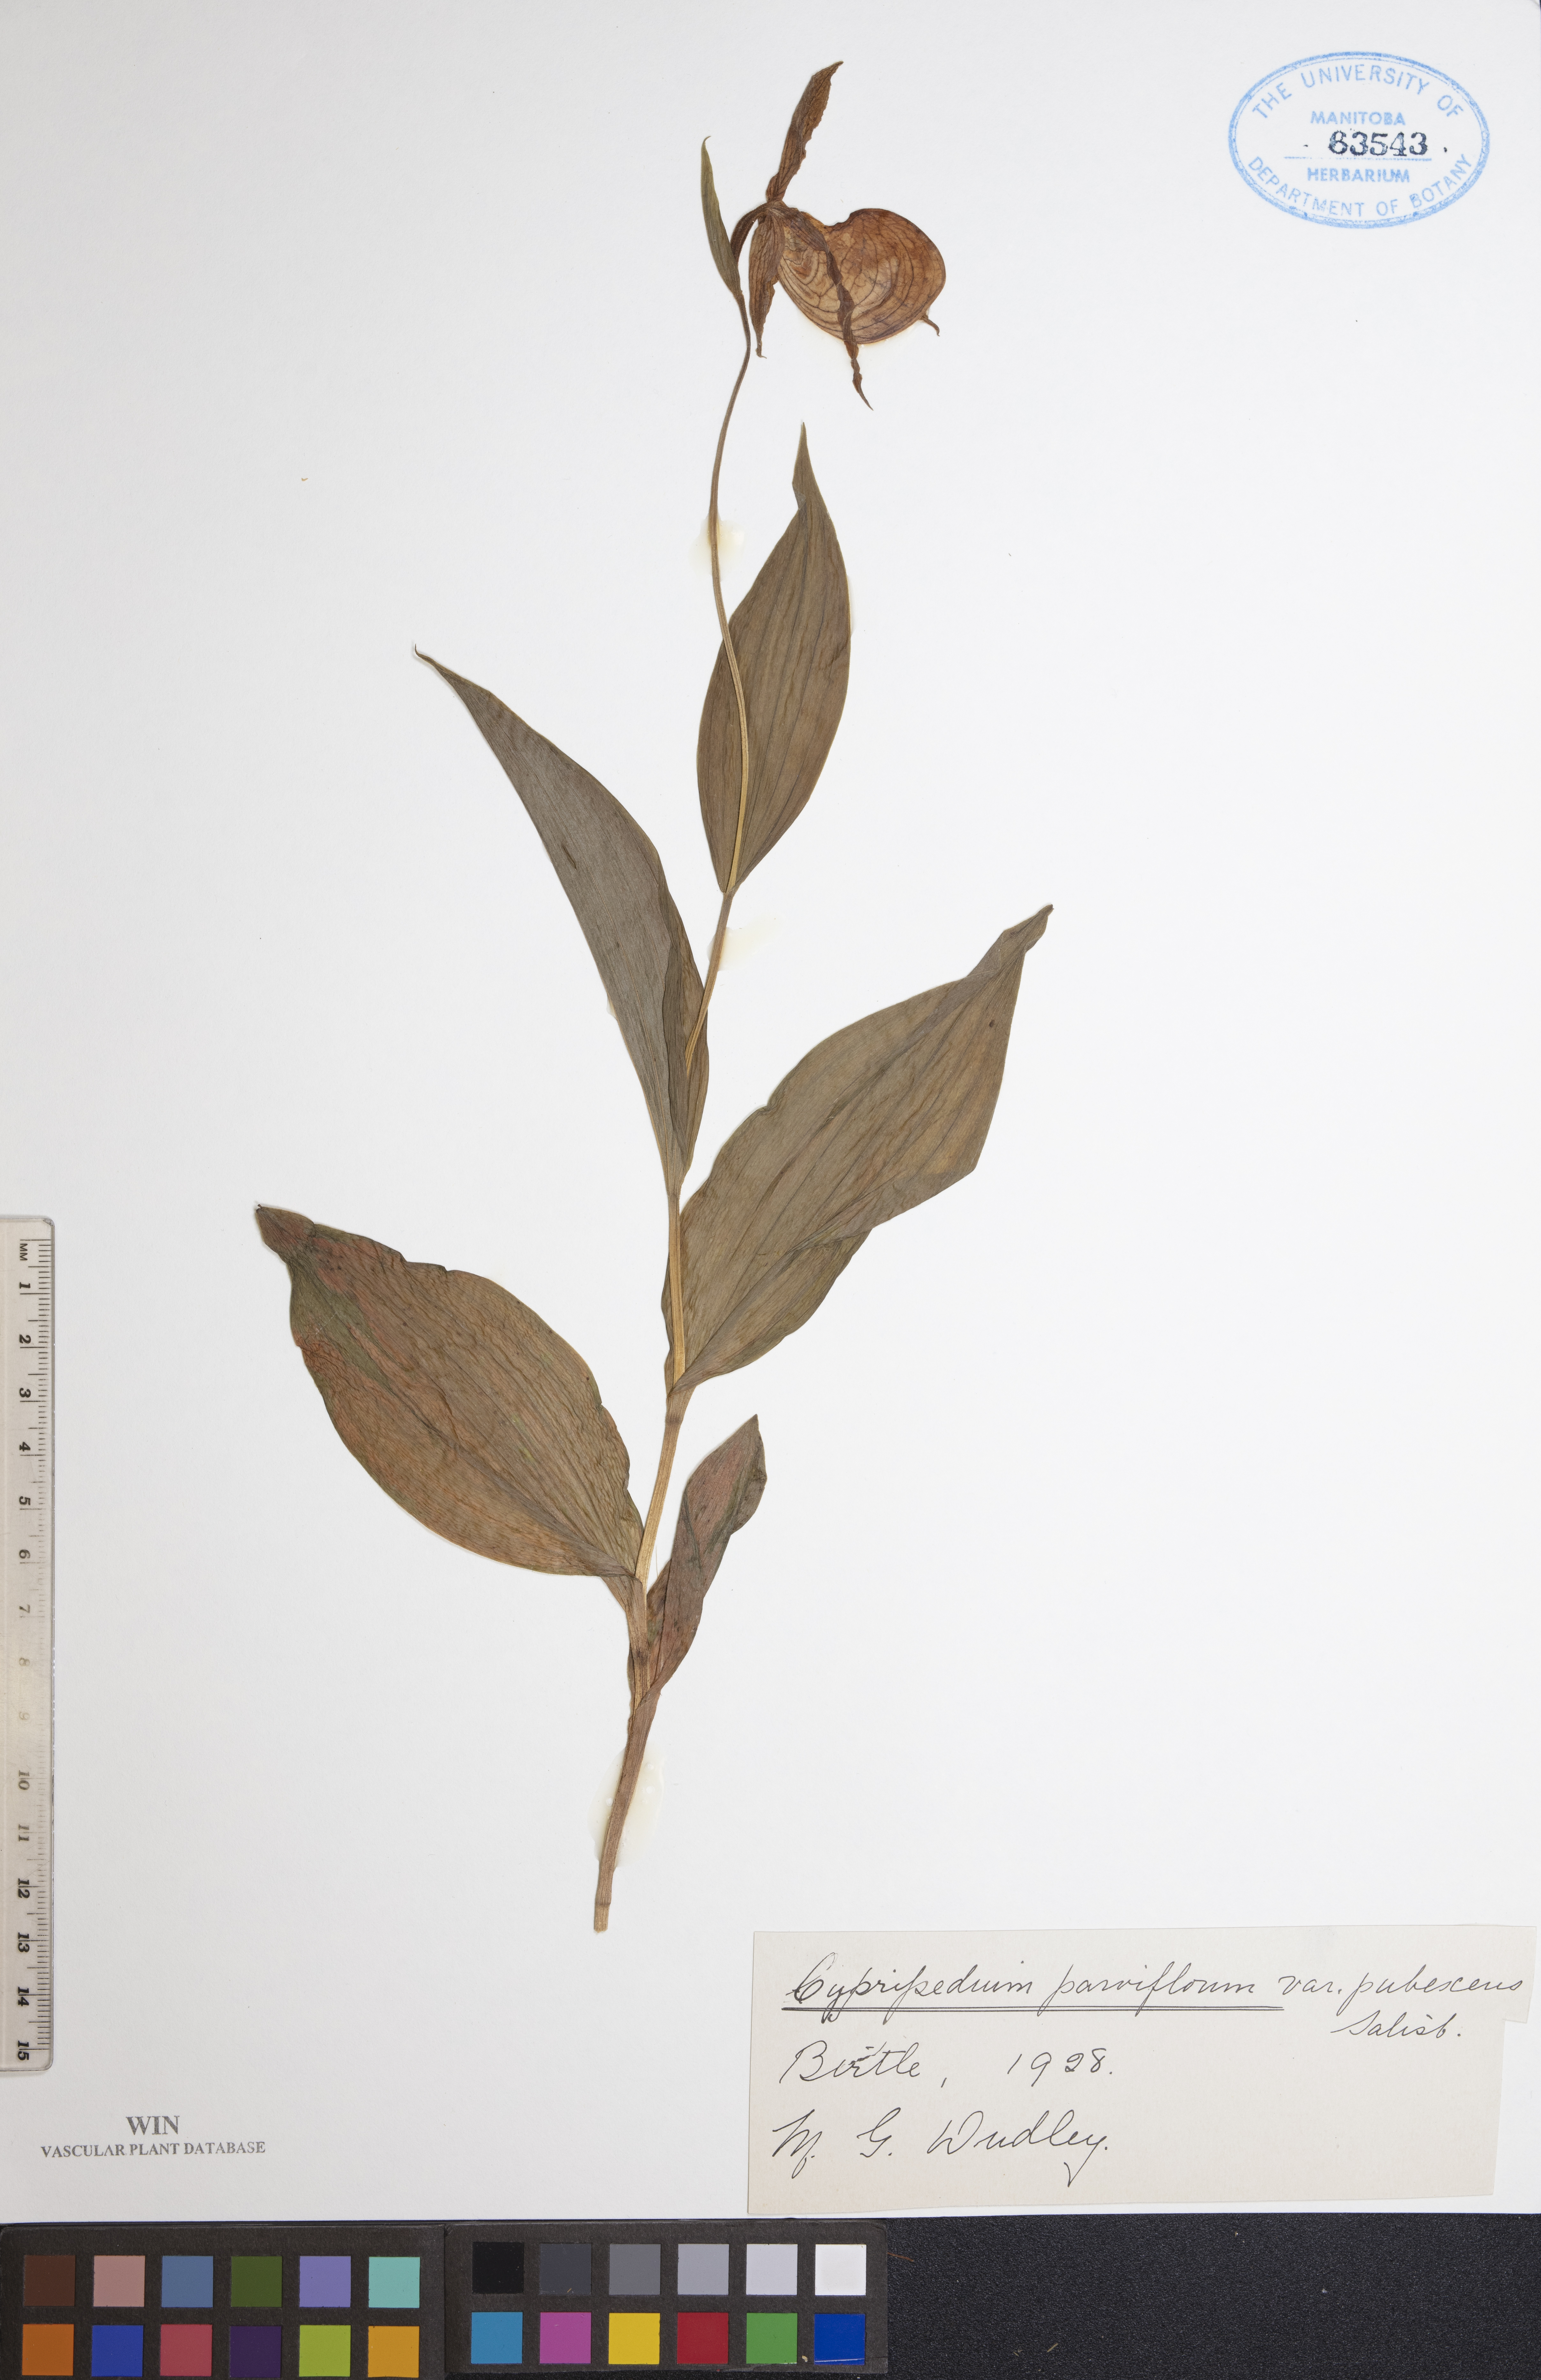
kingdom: Plantae
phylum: Tracheophyta
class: Liliopsida
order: Asparagales
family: Orchidaceae
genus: Cypripedium
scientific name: Cypripedium parviflorum
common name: American yellow lady's-slipper
